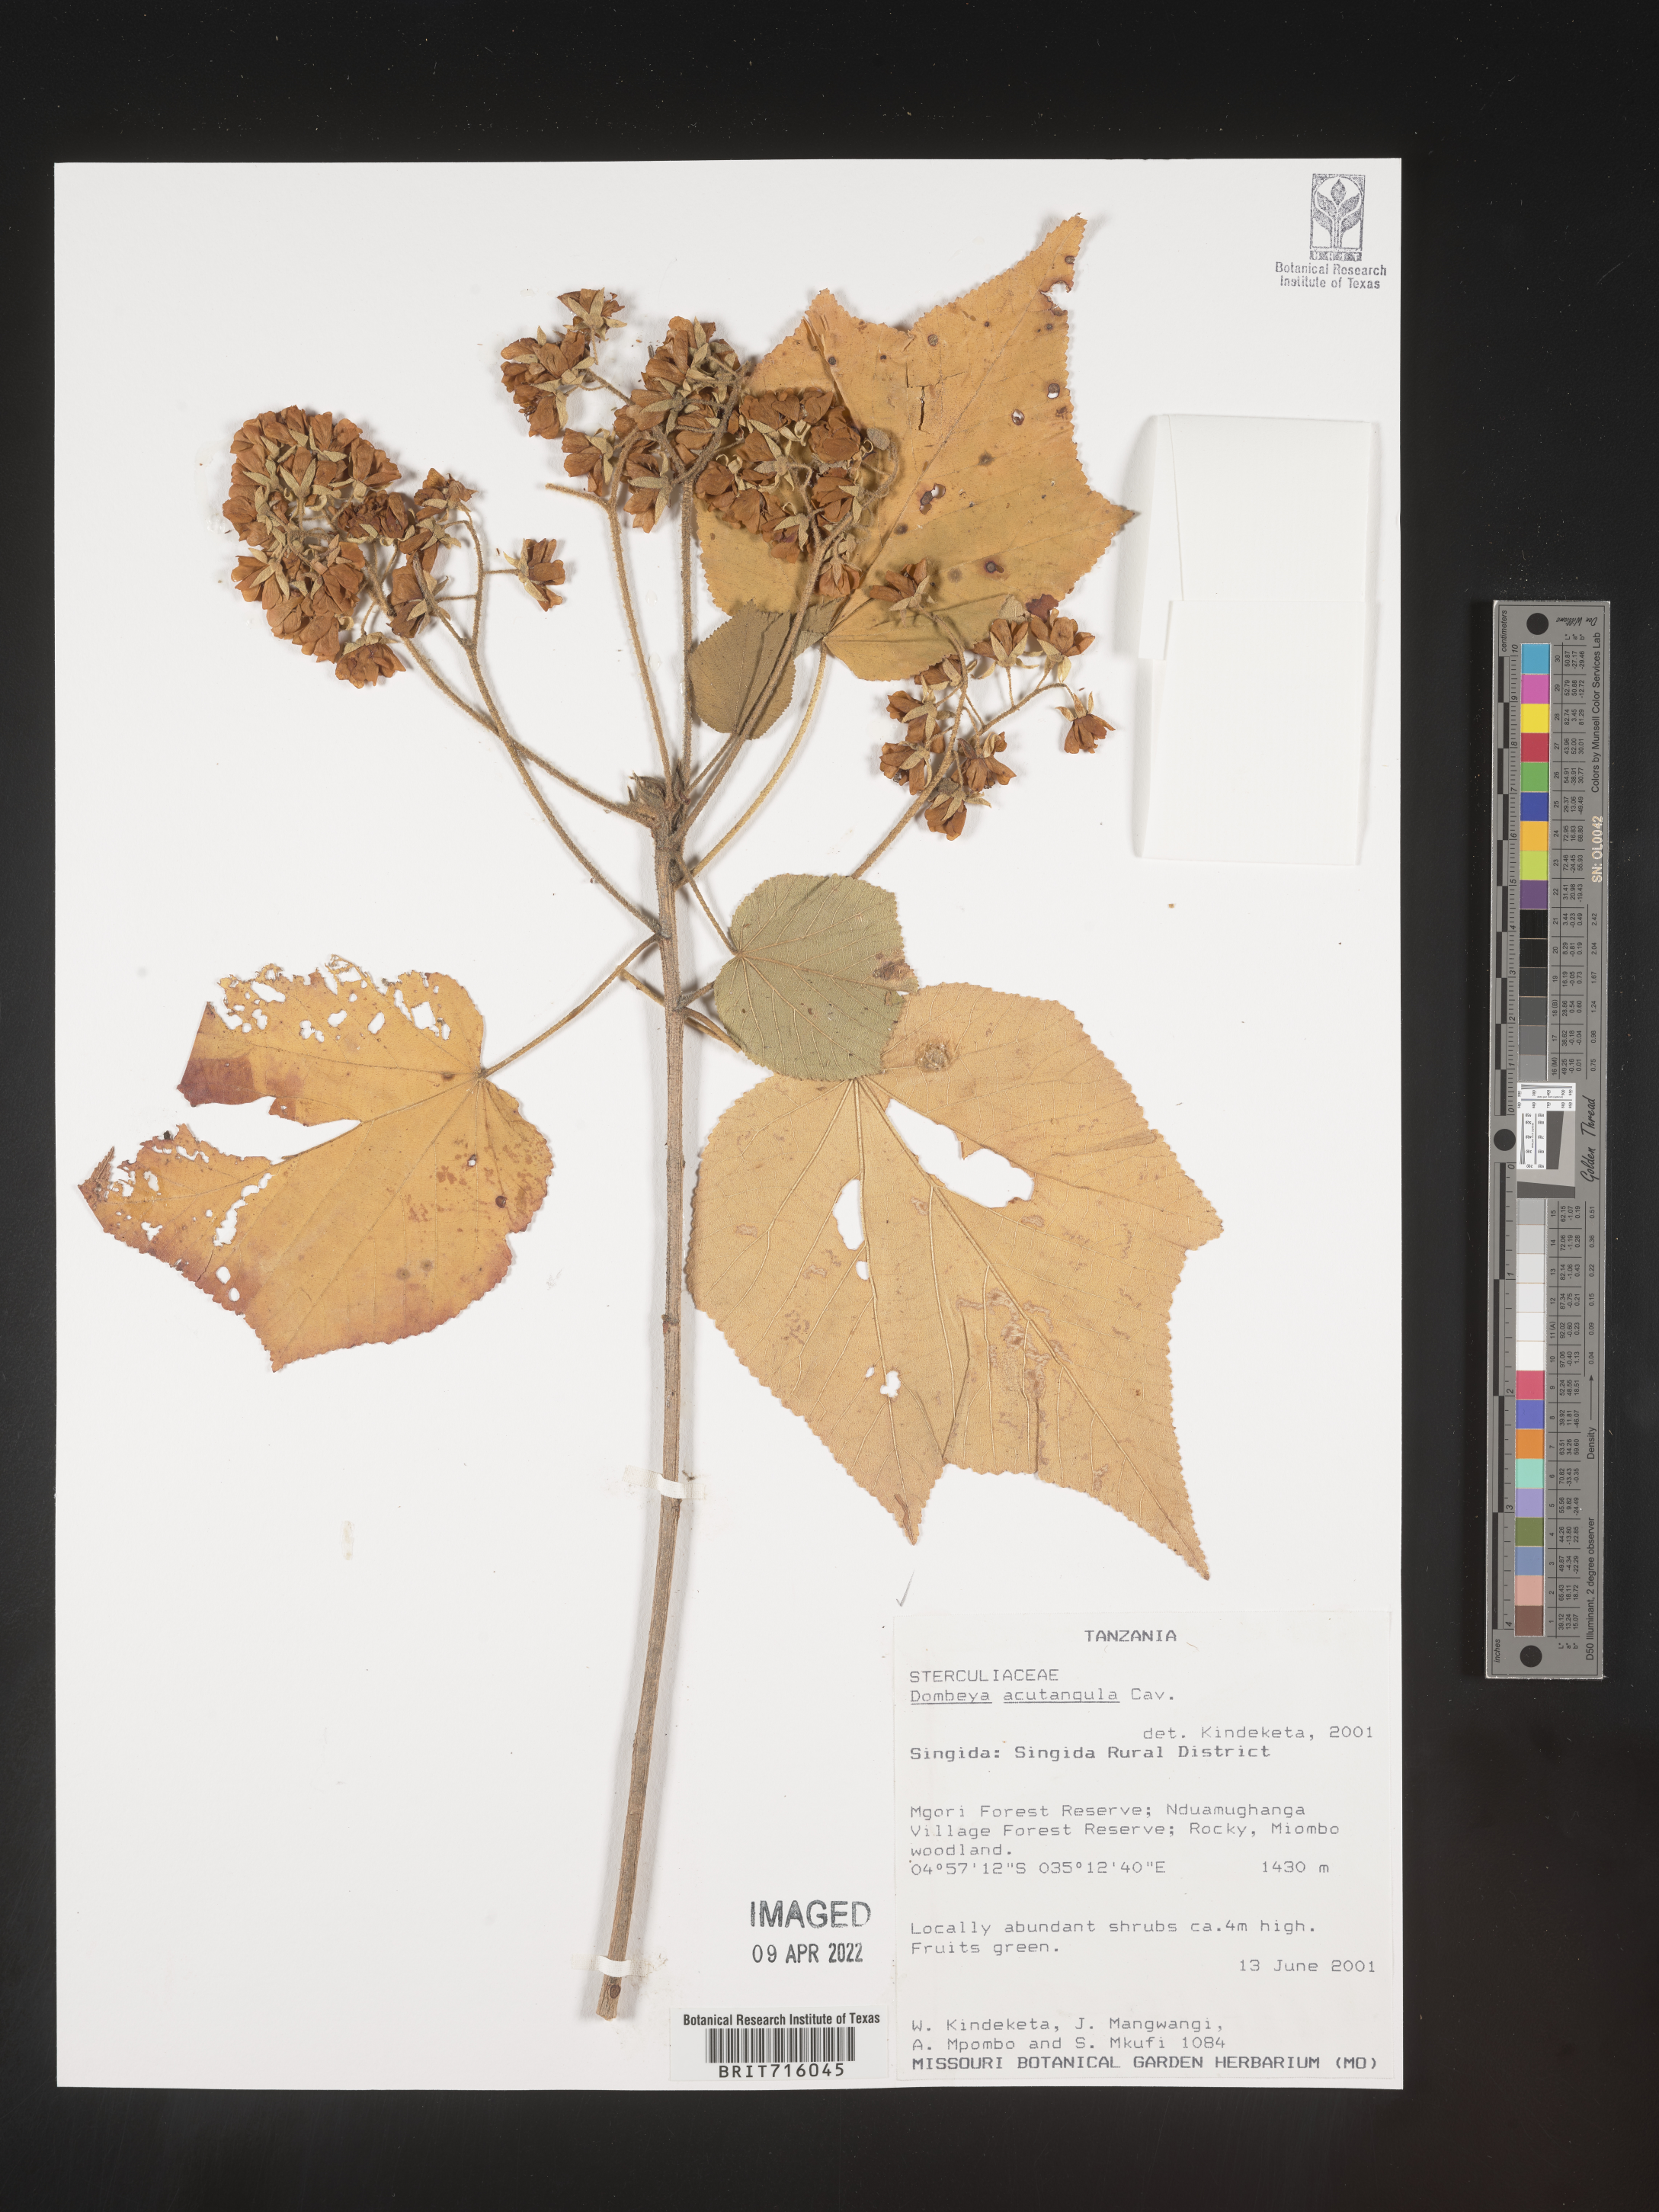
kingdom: Plantae
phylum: Tracheophyta
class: Magnoliopsida
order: Malvales
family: Malvaceae
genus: Dombeya
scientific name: Dombeya
